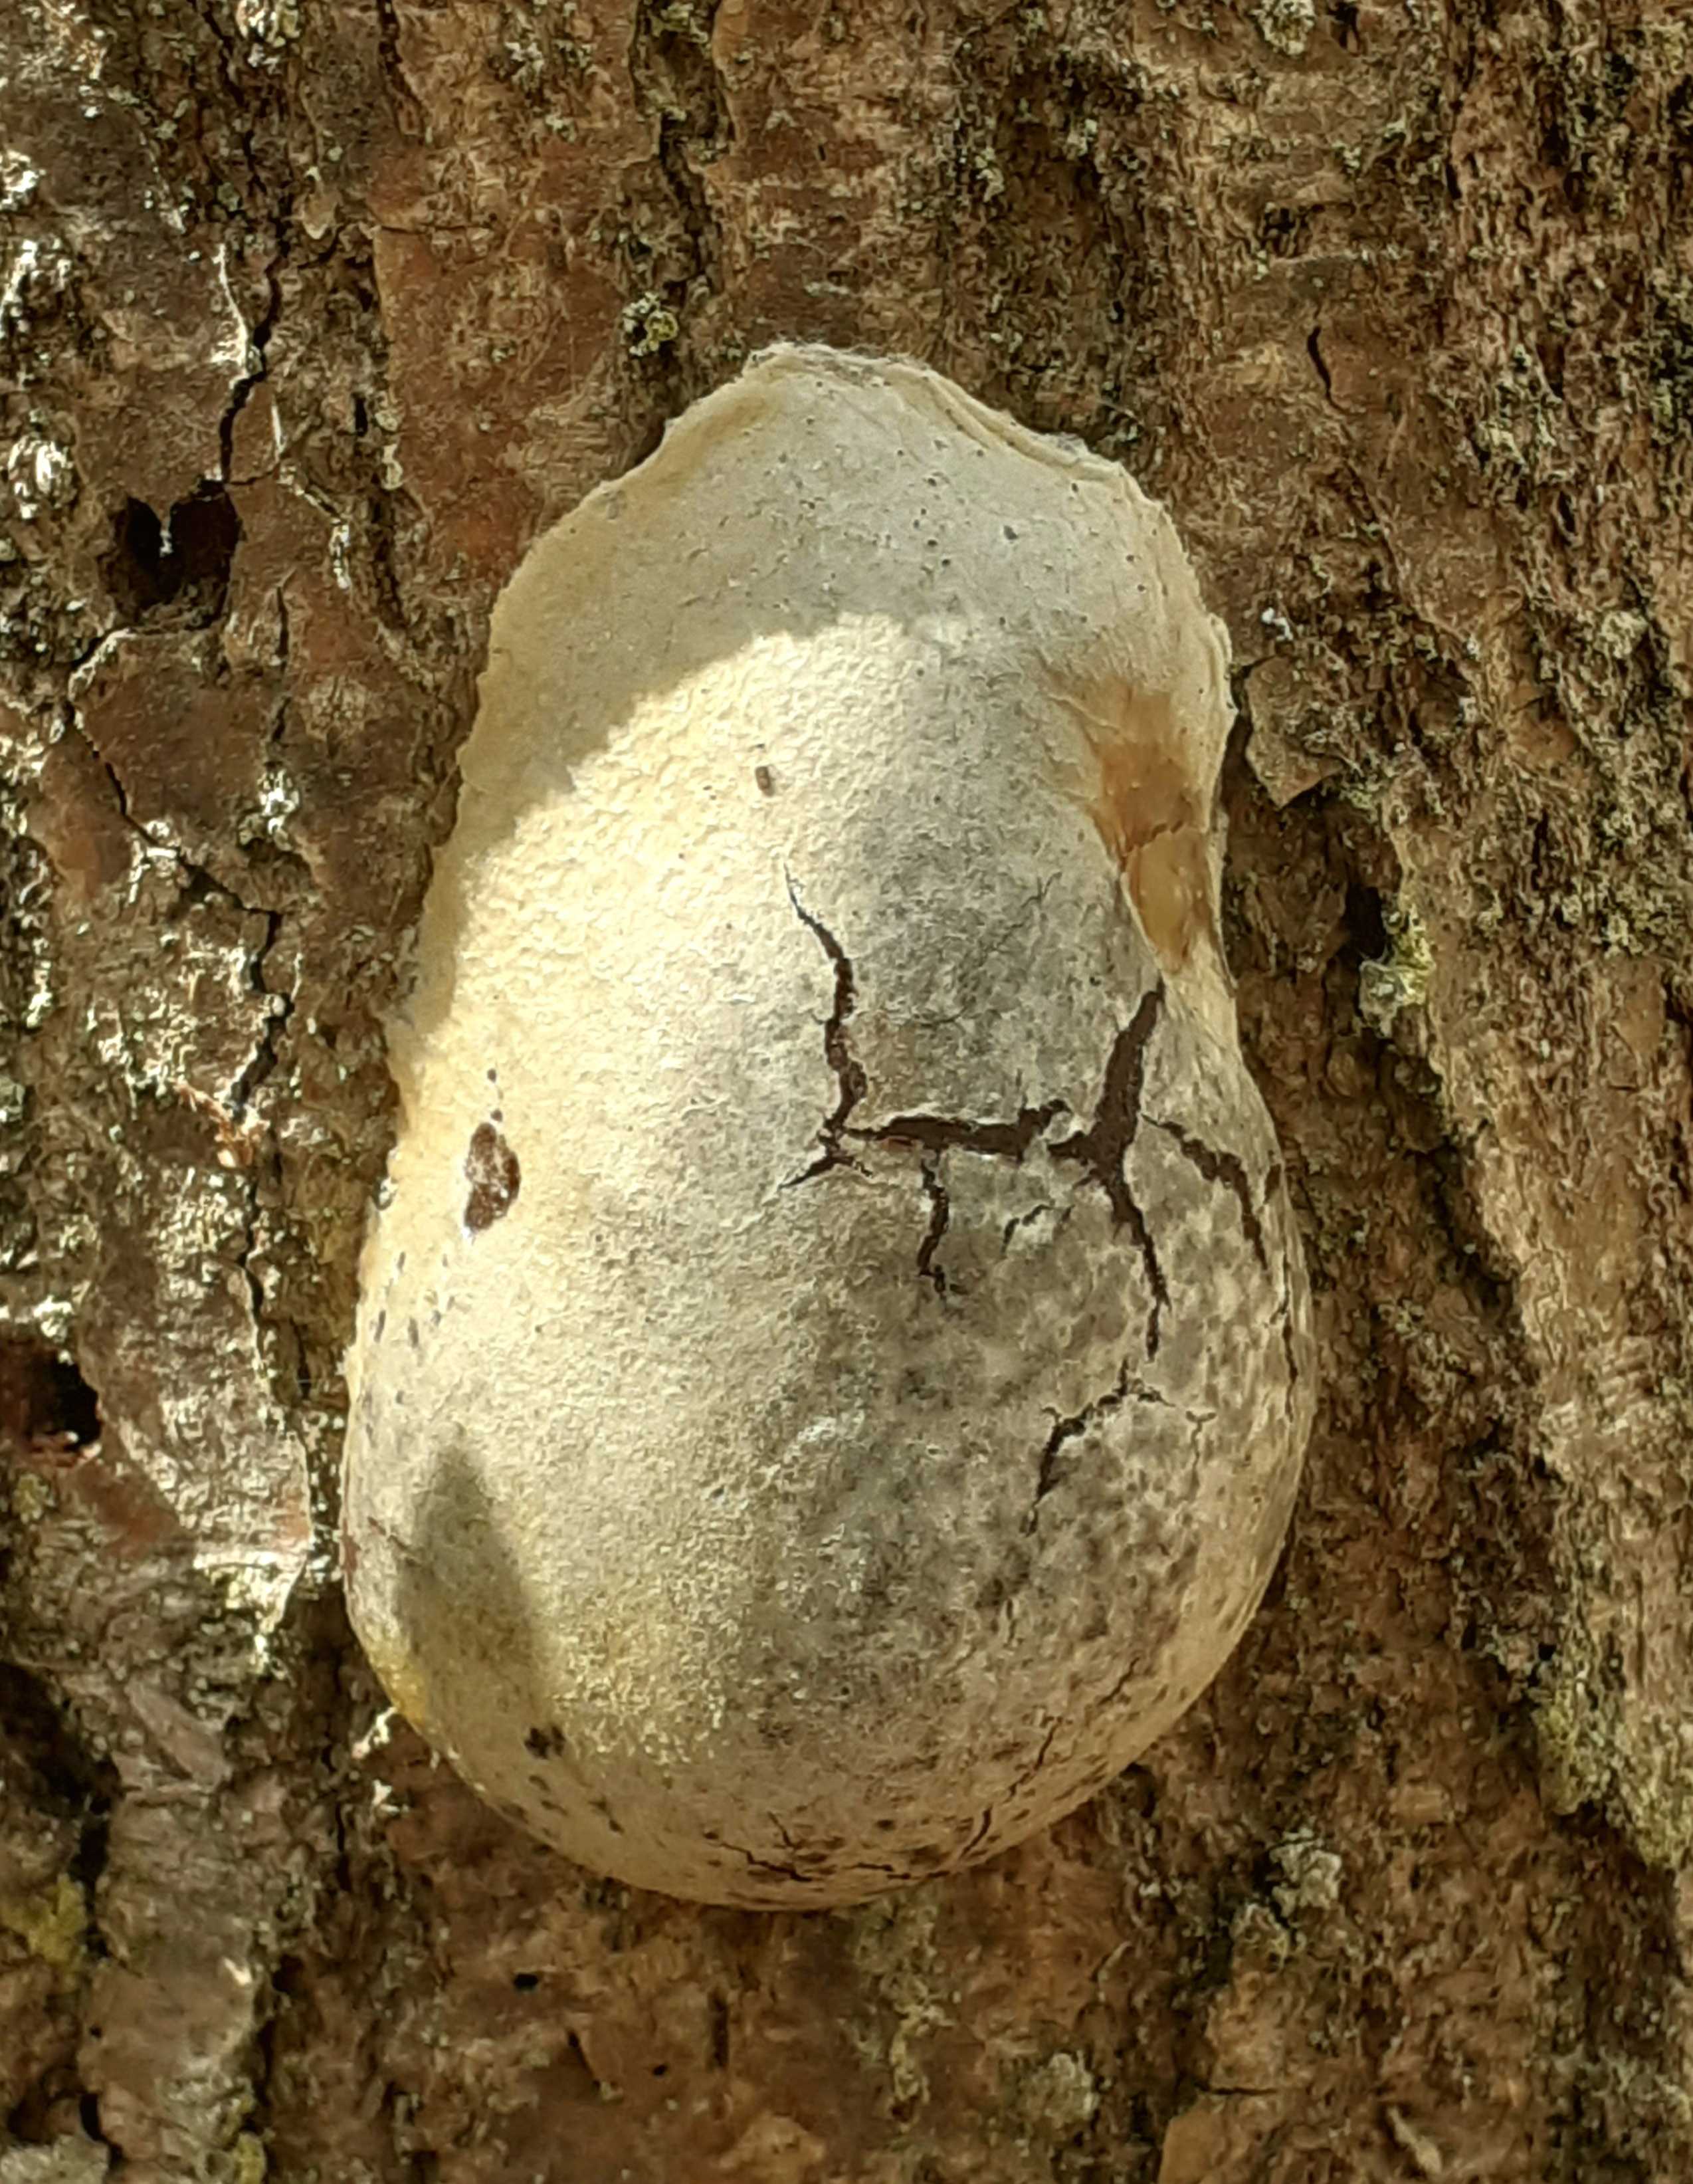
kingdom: Protozoa
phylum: Mycetozoa
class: Myxomycetes
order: Cribrariales
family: Tubiferaceae
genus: Reticularia
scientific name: Reticularia lycoperdon
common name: skinnende støvpude
